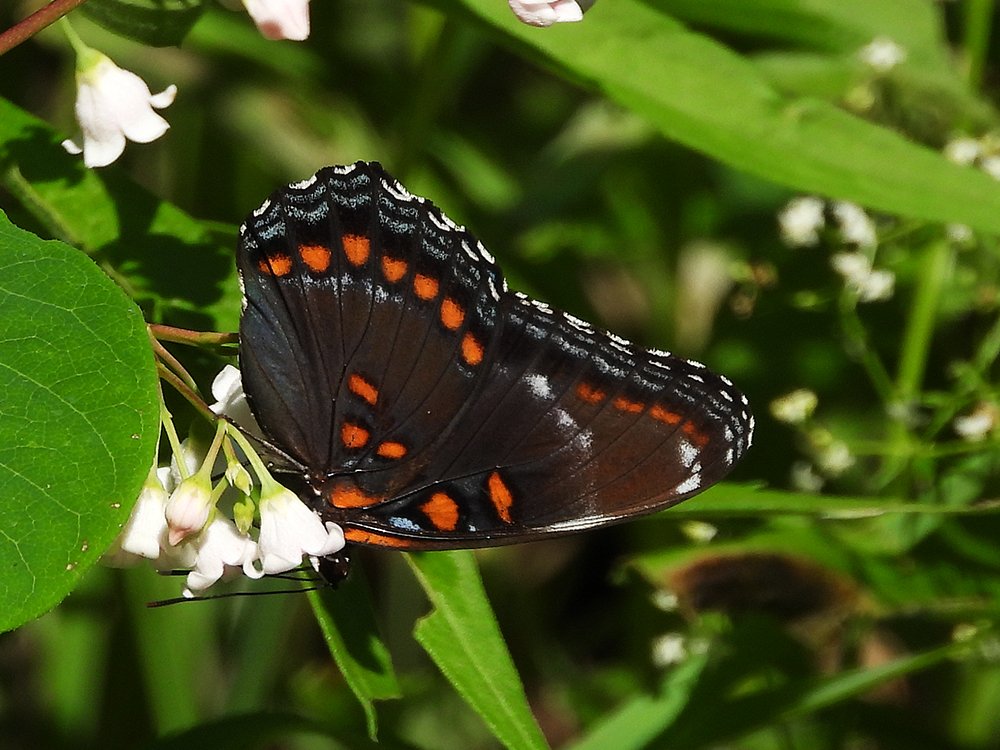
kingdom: Animalia
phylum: Arthropoda
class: Insecta
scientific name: Insecta
